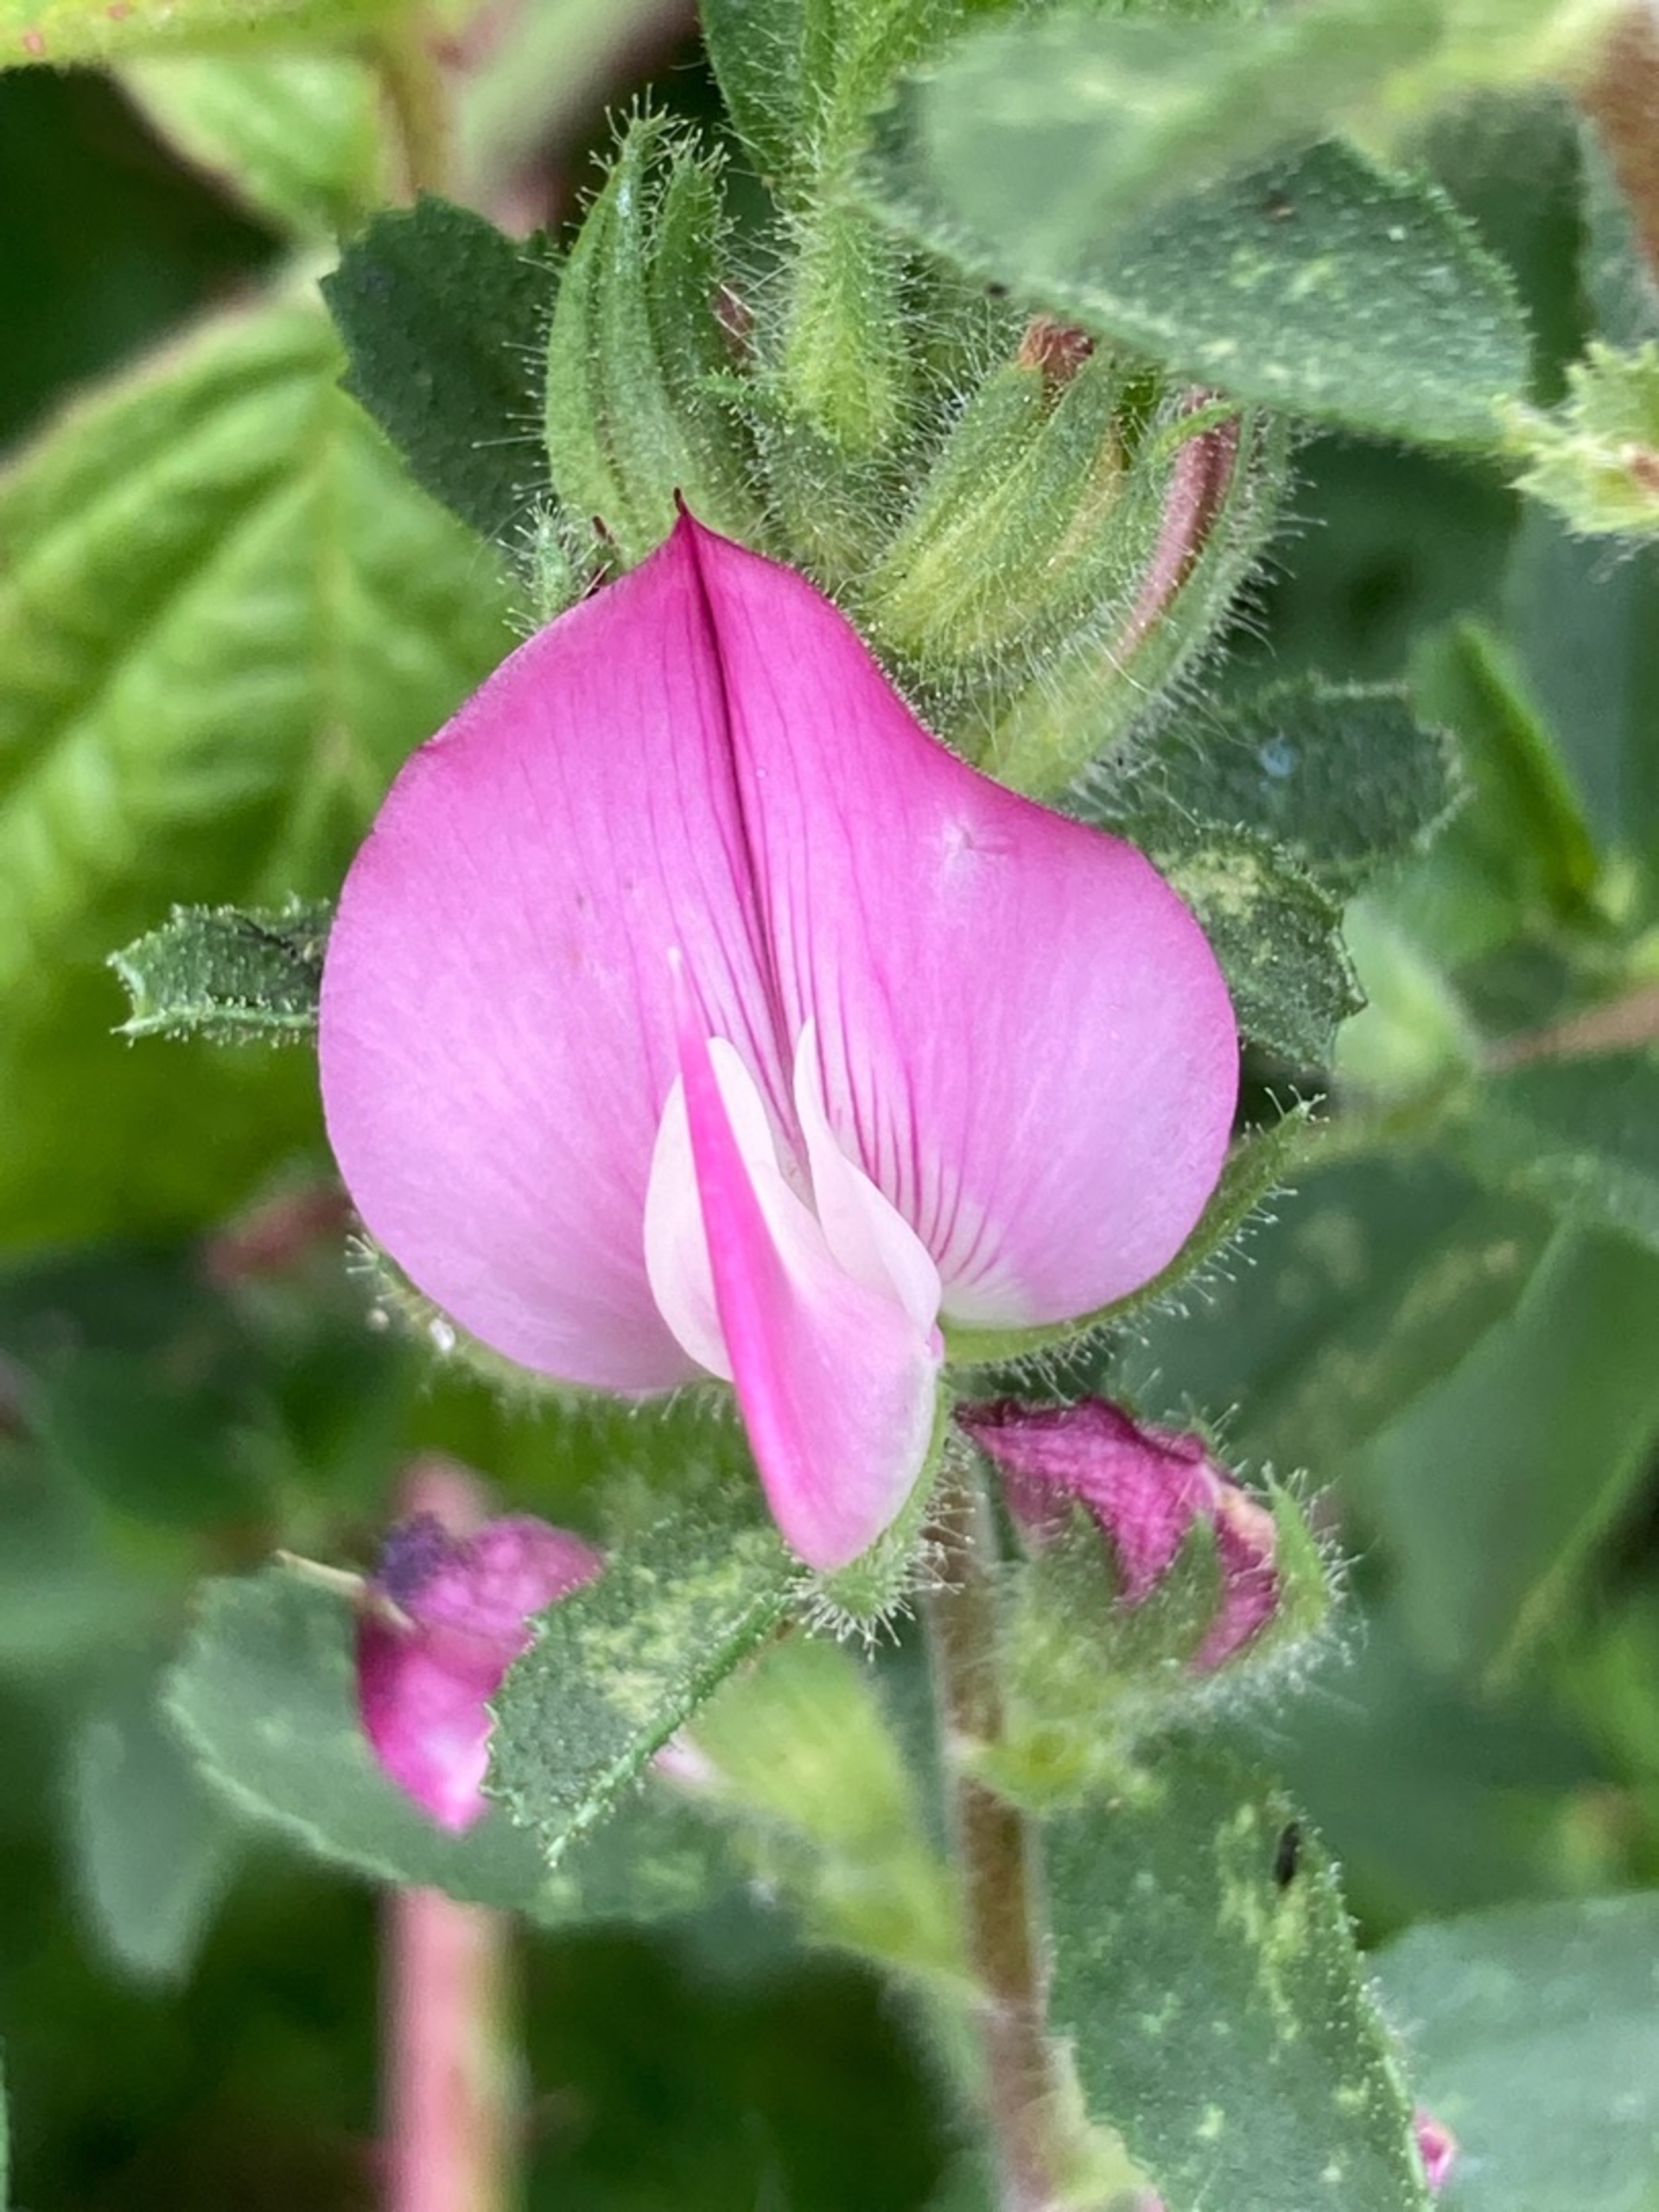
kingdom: Plantae
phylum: Tracheophyta
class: Magnoliopsida
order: Fabales
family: Fabaceae
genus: Ononis
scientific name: Ononis spinosa
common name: Krageklo
